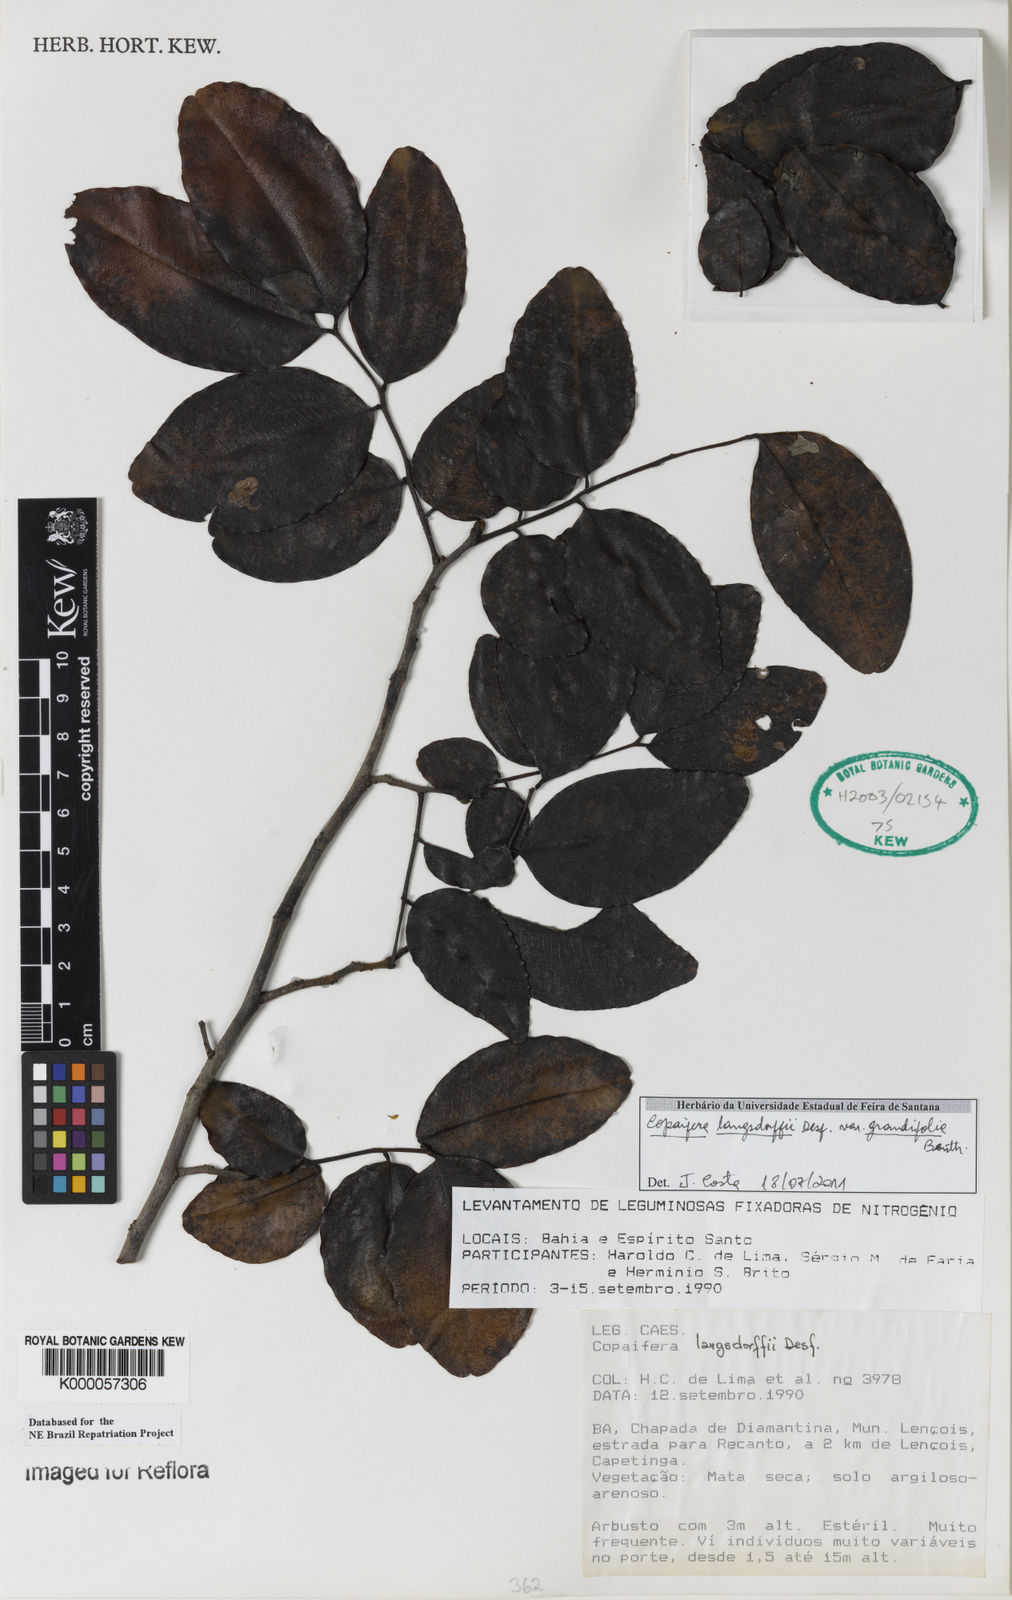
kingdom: Plantae
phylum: Tracheophyta
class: Magnoliopsida
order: Fabales
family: Fabaceae
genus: Copaifera
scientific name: Copaifera langsdorffii
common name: Brazilian diesel tree
